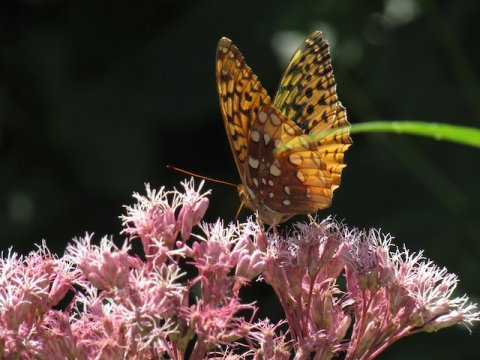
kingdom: Animalia
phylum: Arthropoda
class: Insecta
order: Lepidoptera
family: Nymphalidae
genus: Speyeria
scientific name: Speyeria cybele
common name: Great Spangled Fritillary
